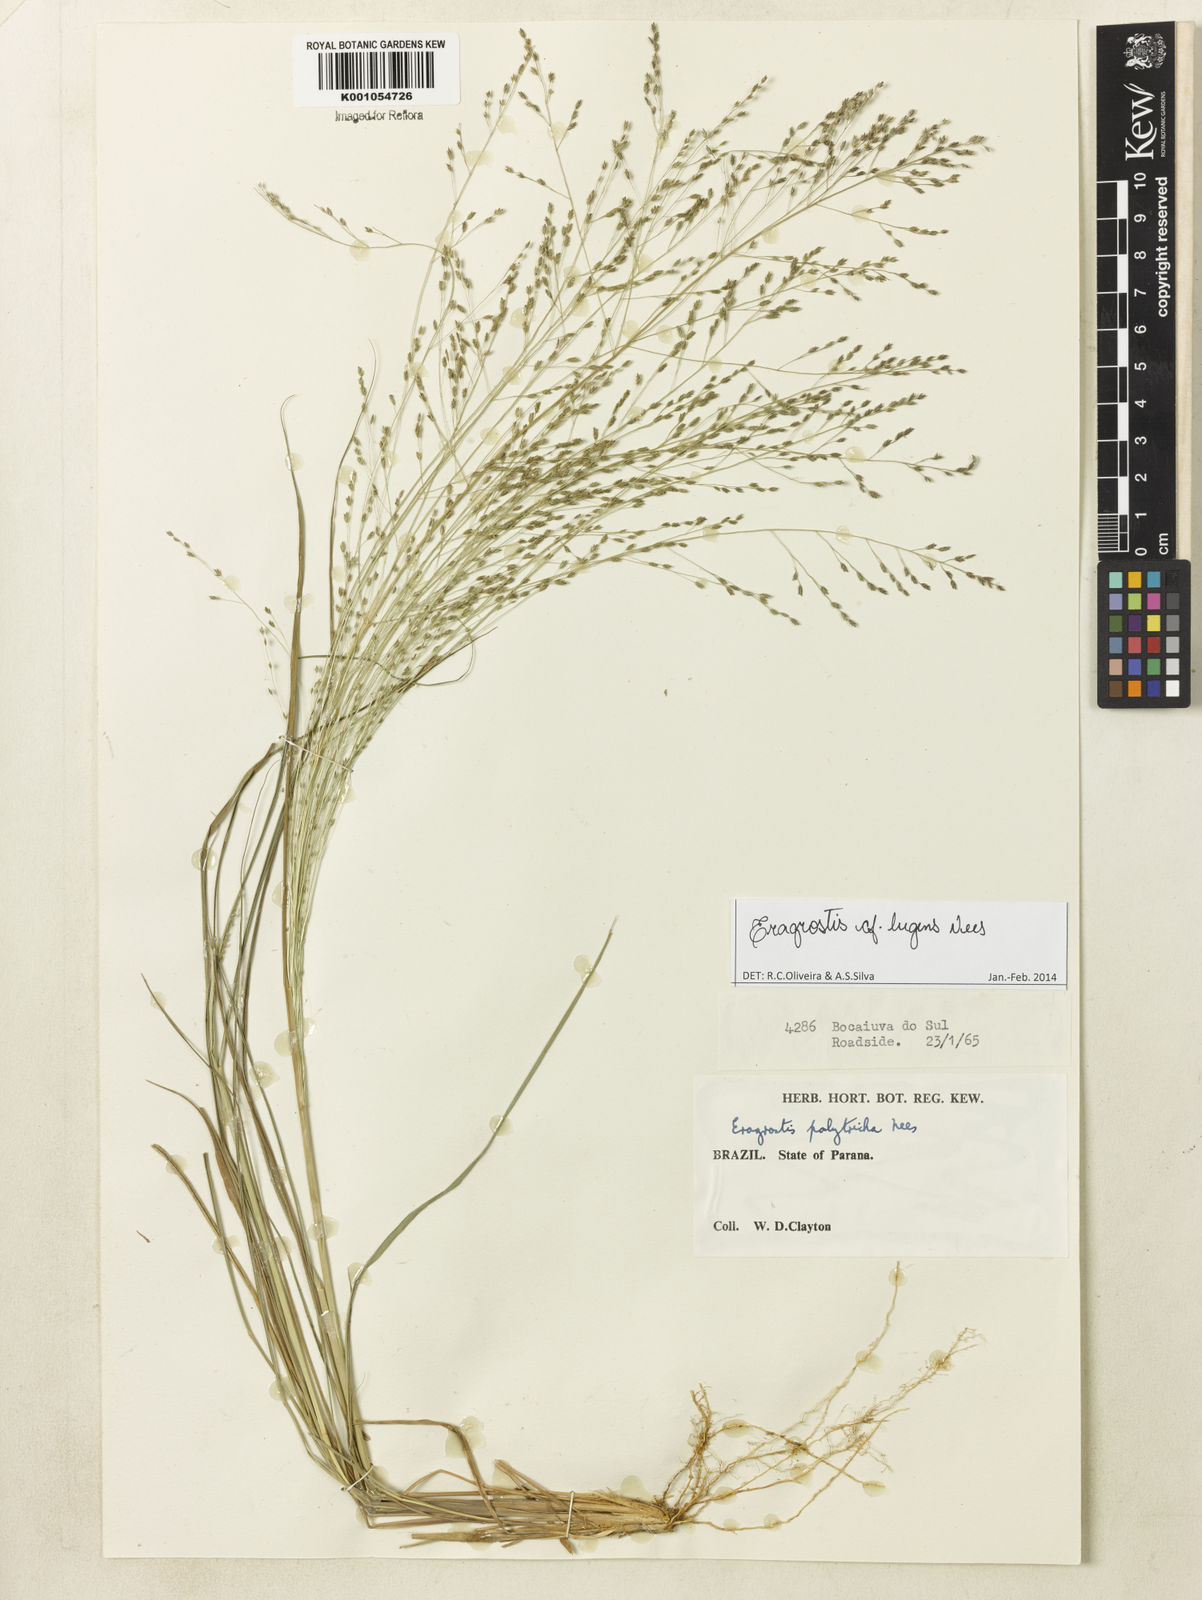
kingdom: Plantae
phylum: Tracheophyta
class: Liliopsida
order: Poales
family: Poaceae
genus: Eragrostis
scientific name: Eragrostis lugens
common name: Mourning love grass
